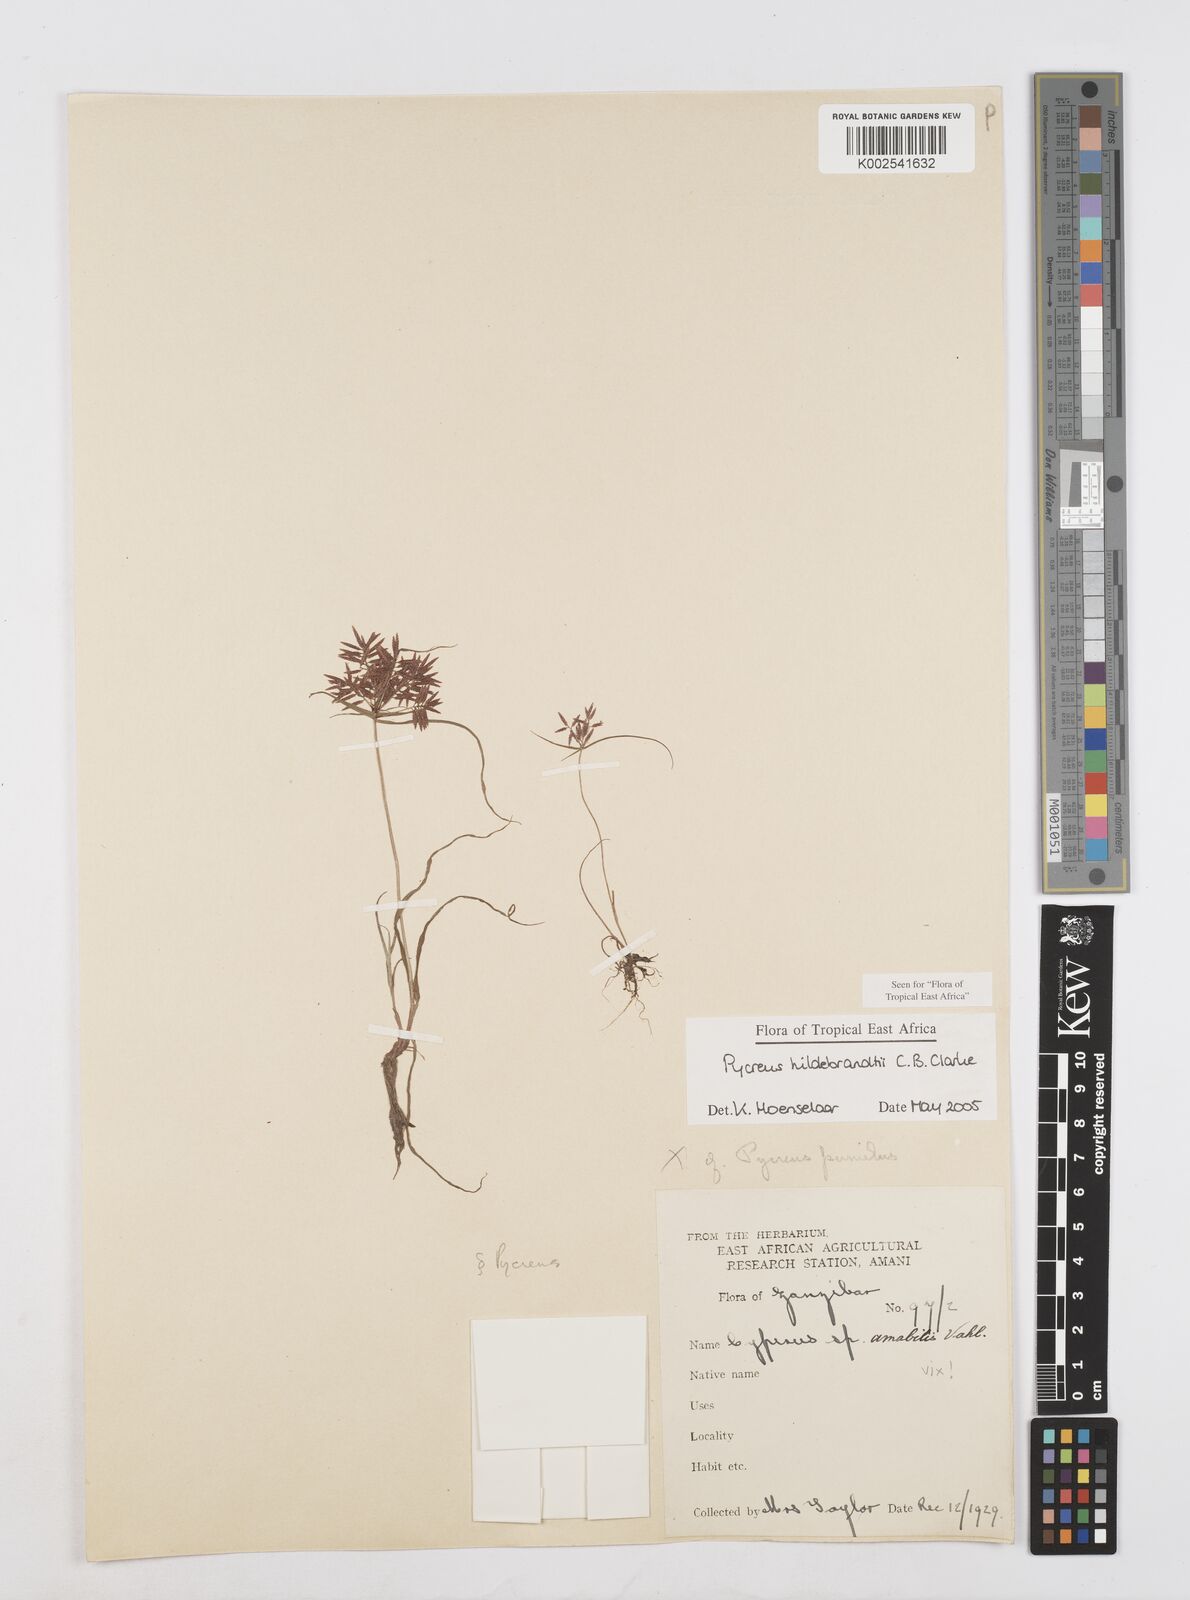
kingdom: Plantae
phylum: Tracheophyta
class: Liliopsida
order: Poales
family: Cyperaceae
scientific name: Cyperaceae
